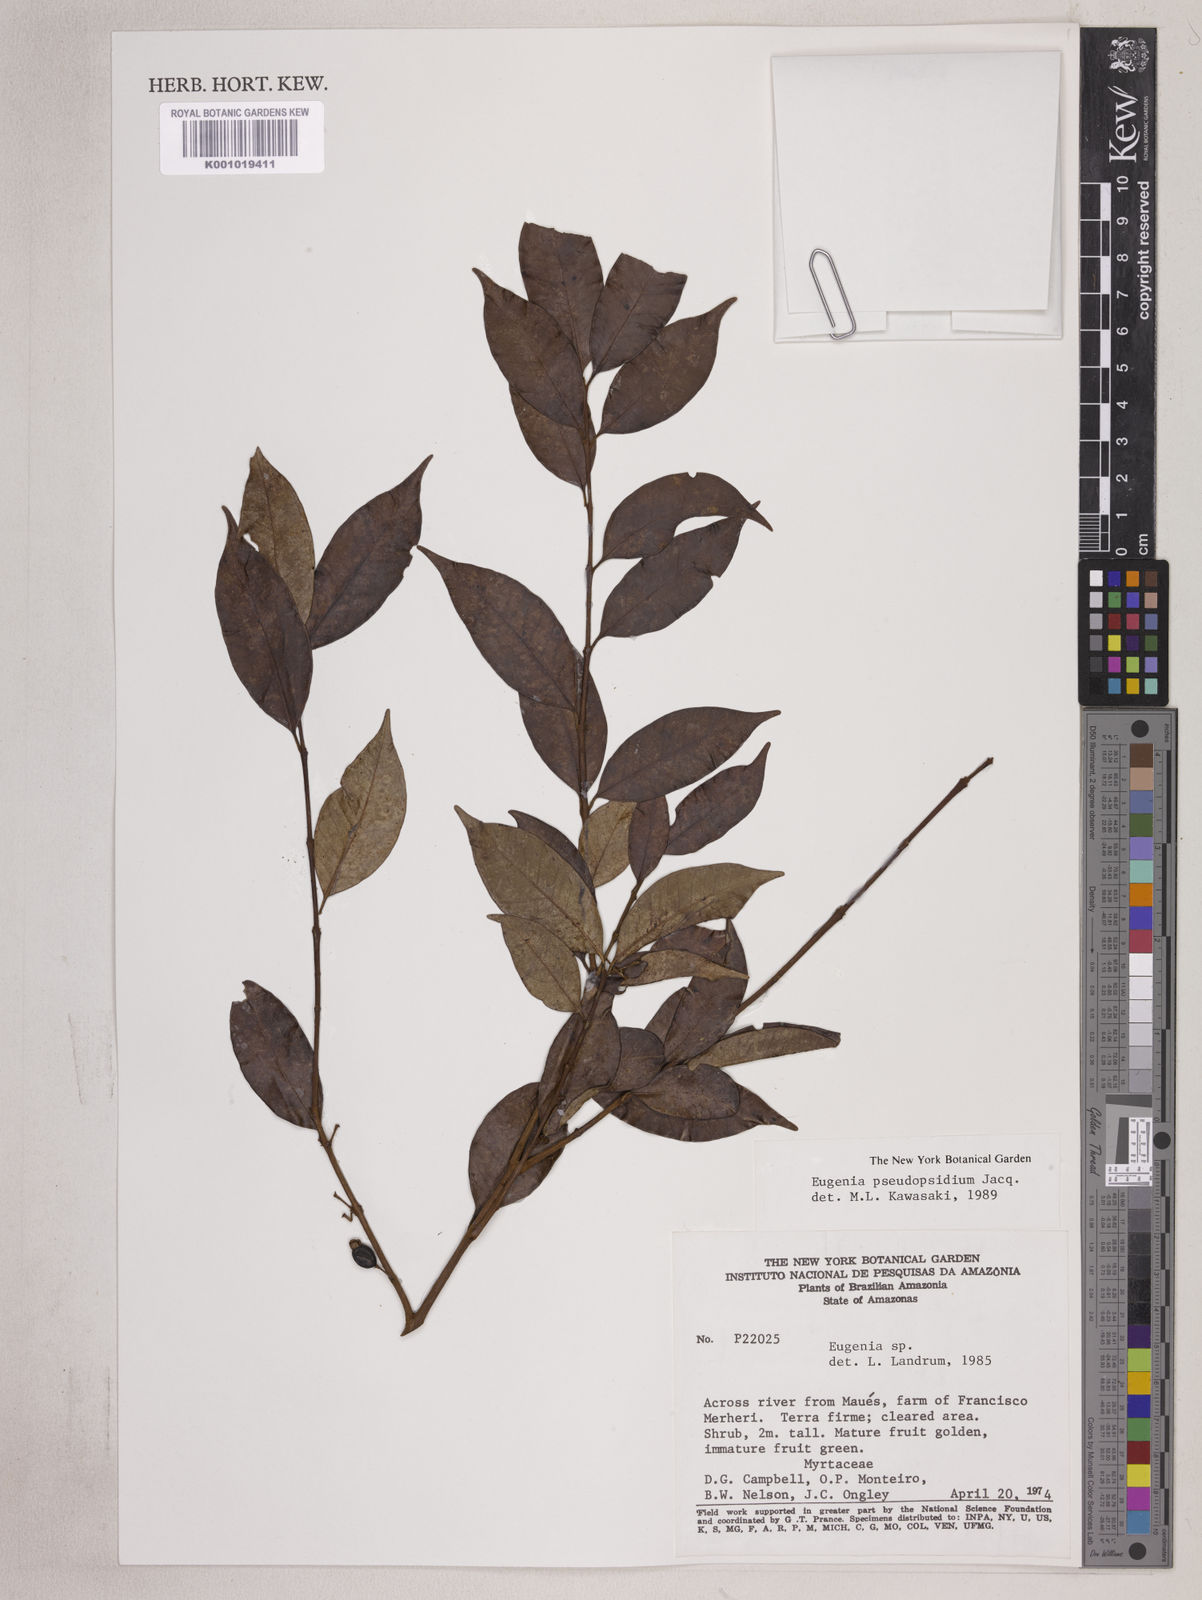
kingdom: Plantae
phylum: Tracheophyta
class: Magnoliopsida
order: Myrtales
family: Myrtaceae
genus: Eugenia
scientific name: Eugenia pseudopsidium
